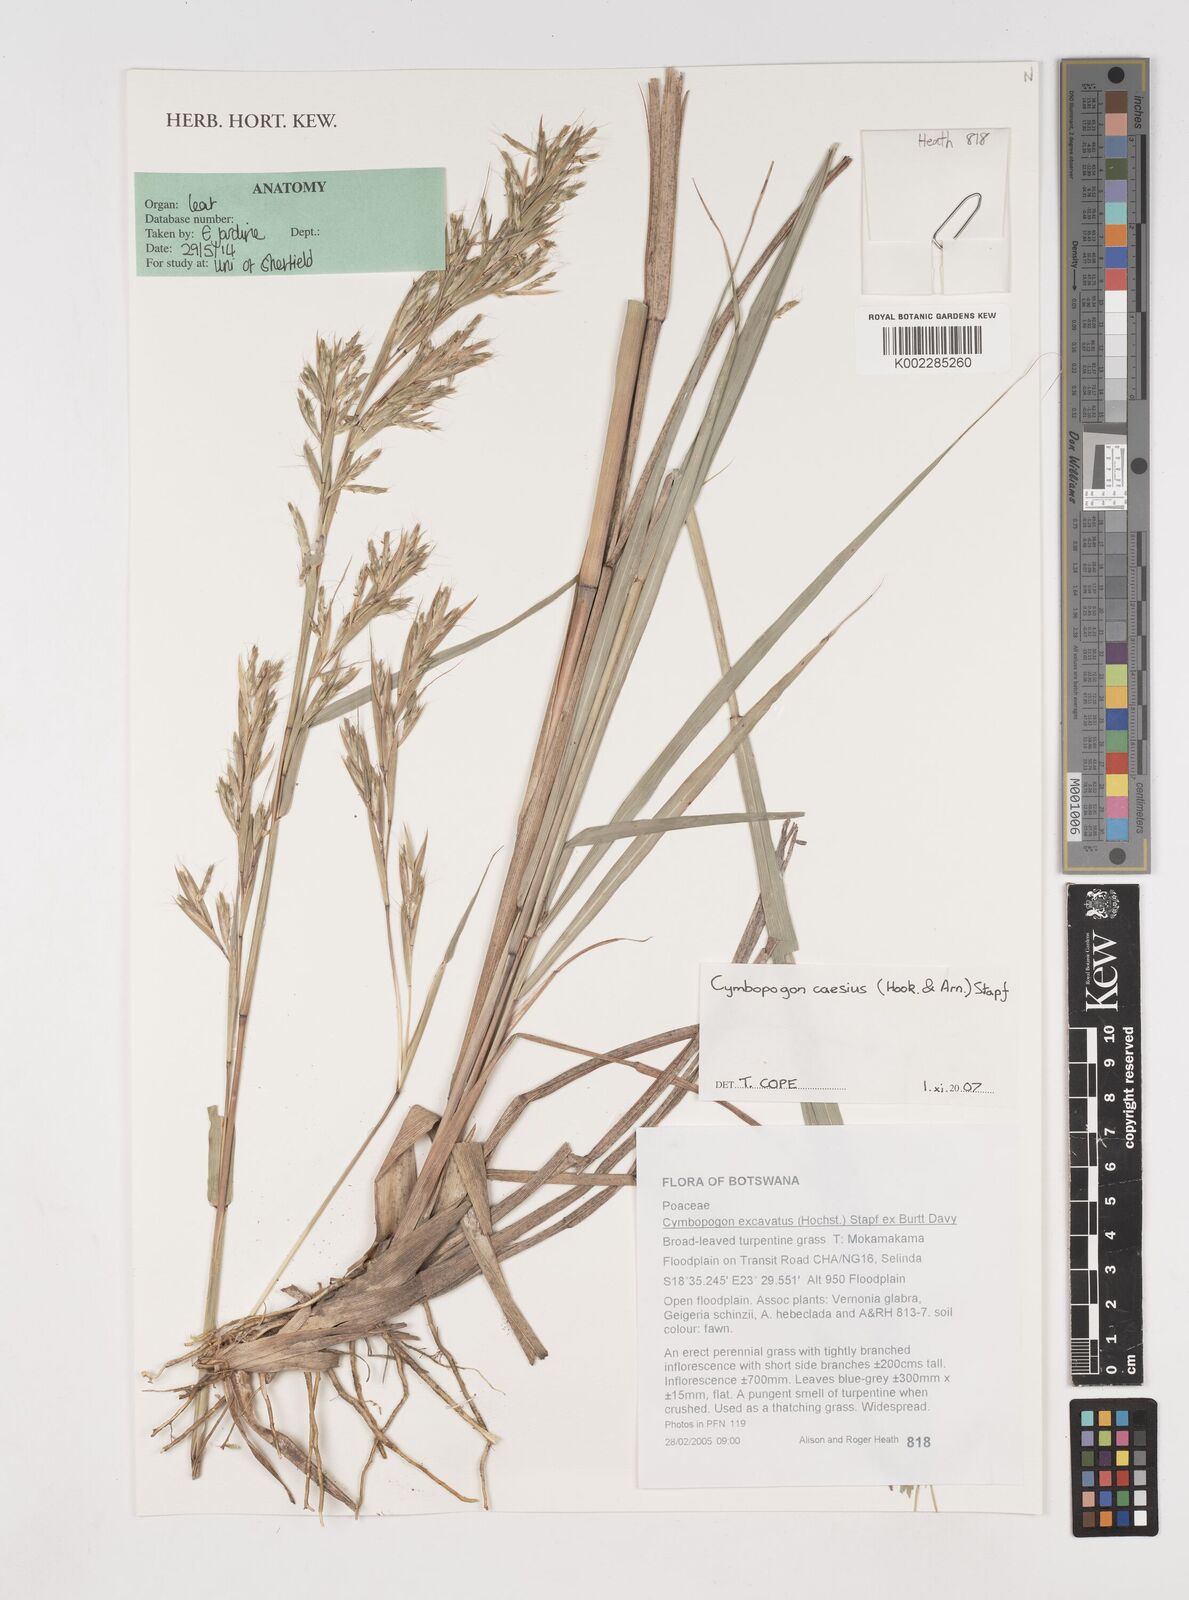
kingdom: Plantae
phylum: Tracheophyta
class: Liliopsida
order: Poales
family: Poaceae
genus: Cymbopogon
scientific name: Cymbopogon caesius
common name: Kachi grass
